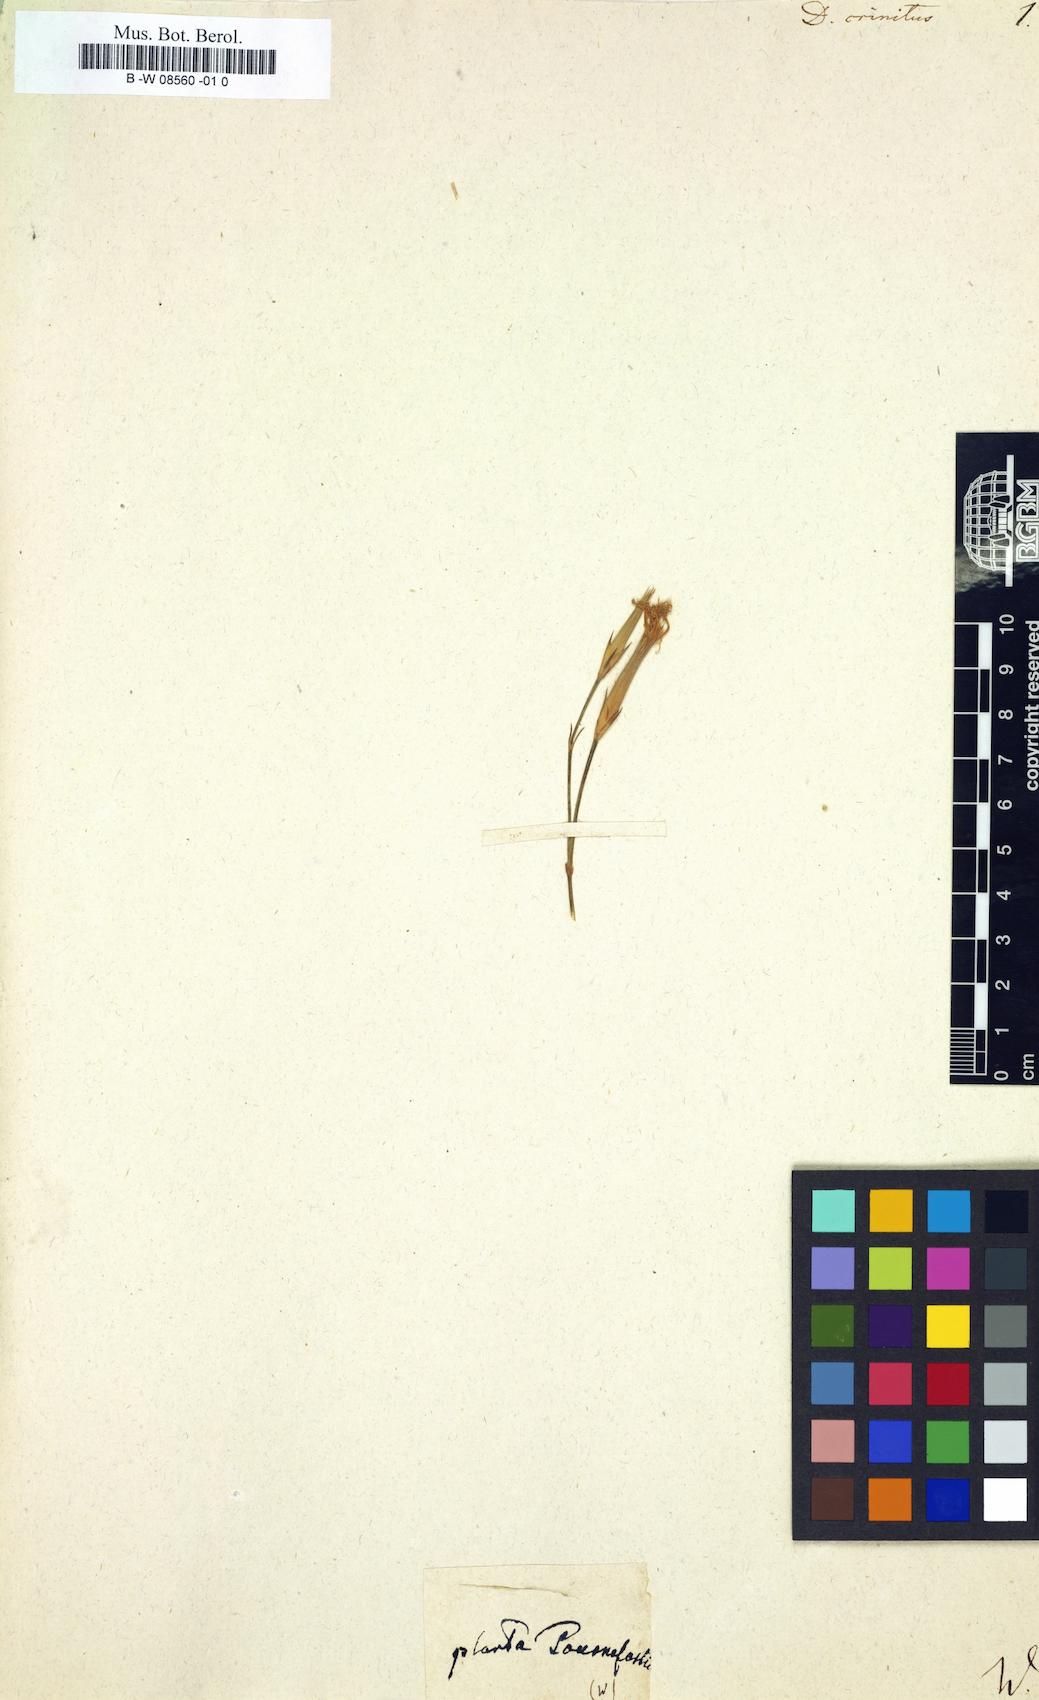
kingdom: Plantae
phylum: Tracheophyta
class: Magnoliopsida
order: Caryophyllales
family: Caryophyllaceae
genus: Dianthus
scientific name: Dianthus crinitus
